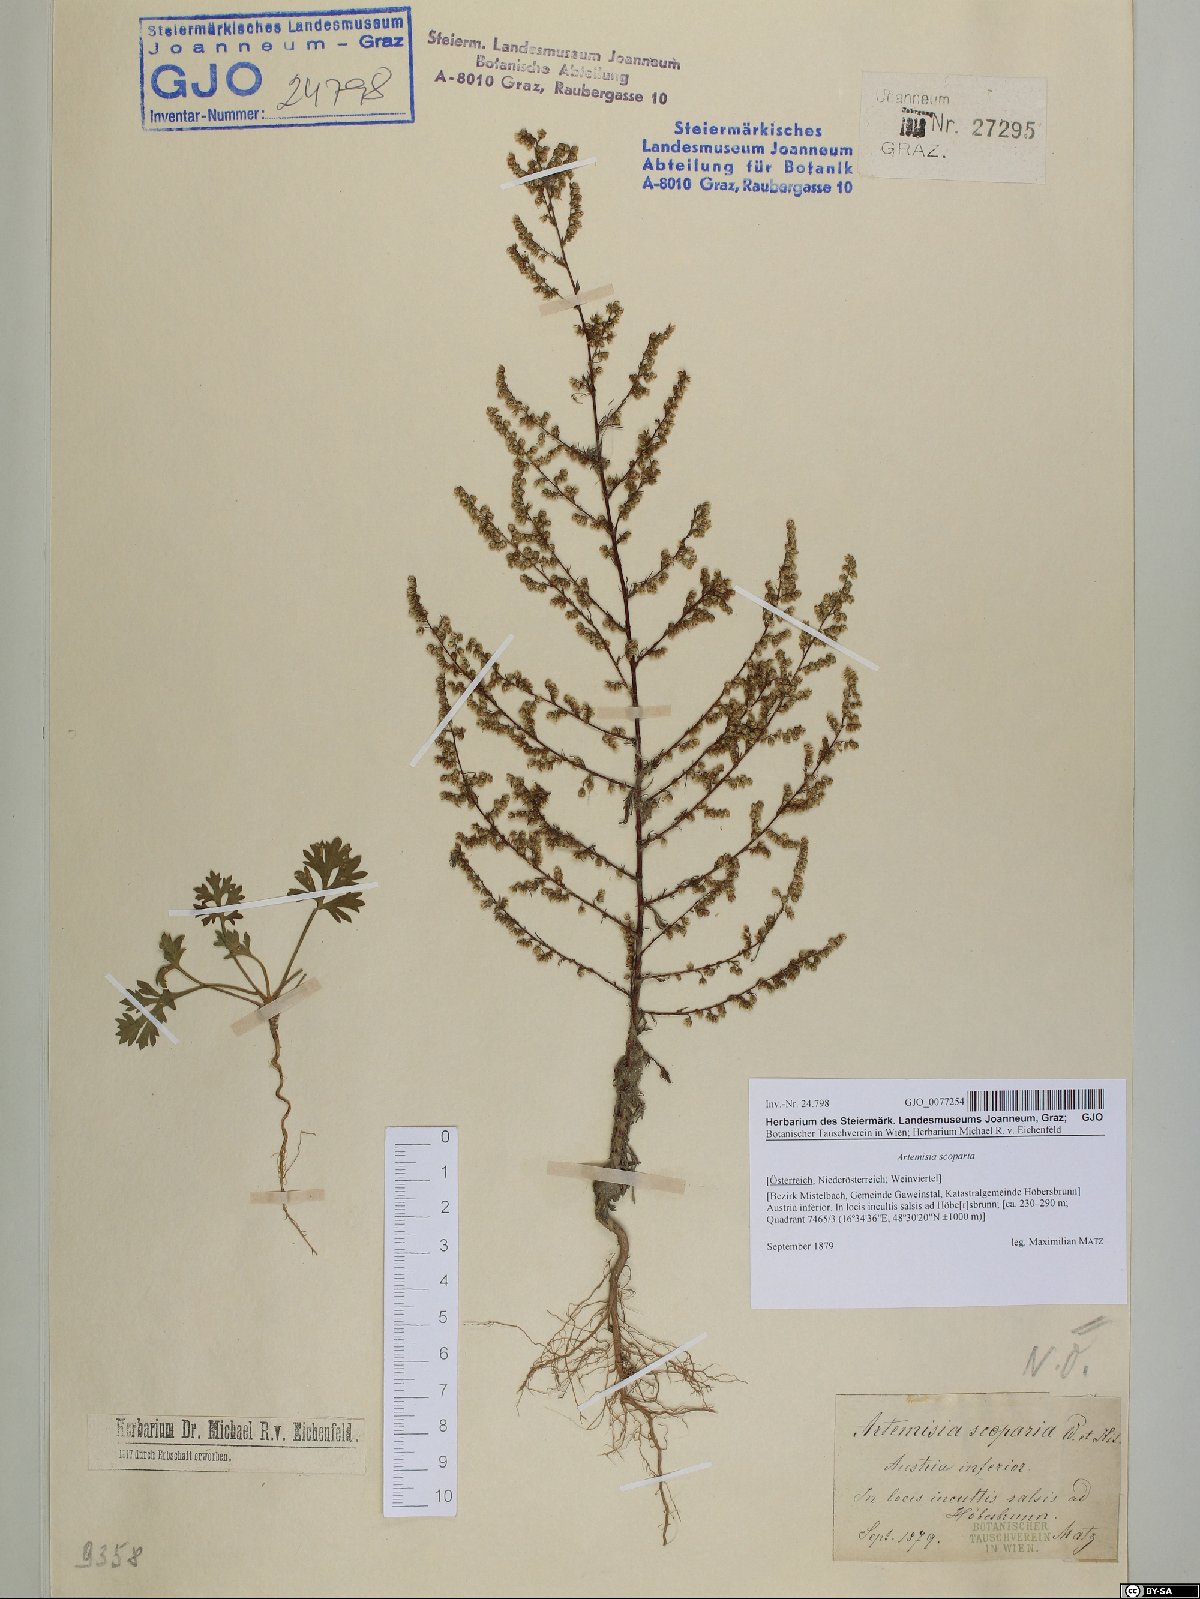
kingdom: Plantae
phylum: Tracheophyta
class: Magnoliopsida
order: Asterales
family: Asteraceae
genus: Artemisia
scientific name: Artemisia scoparia
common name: Redstem wormwood
